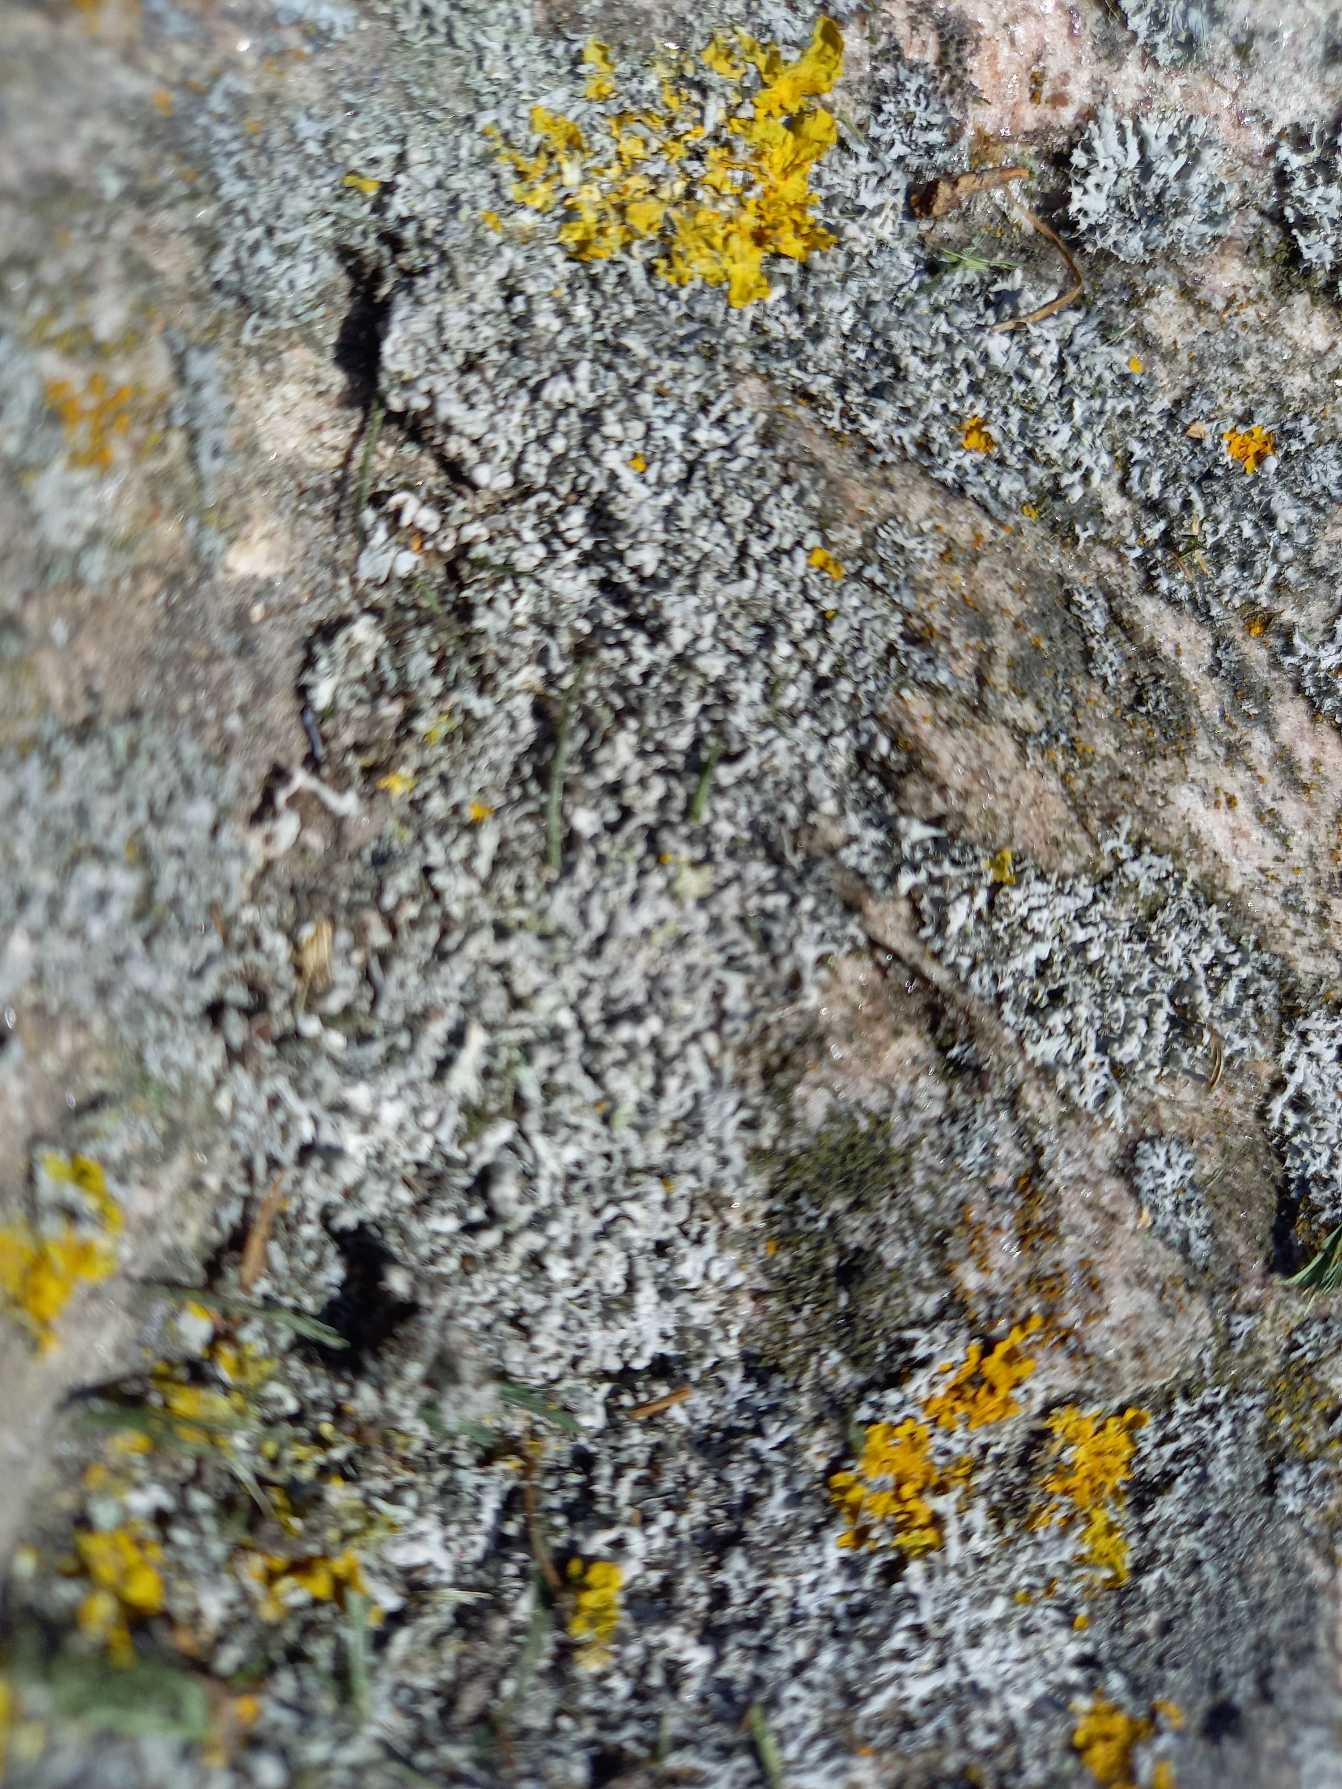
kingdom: Fungi
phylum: Ascomycota
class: Lecanoromycetes
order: Caliciales
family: Physciaceae
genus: Physcia
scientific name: Physcia adscendens
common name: Hætte-rosetlav
